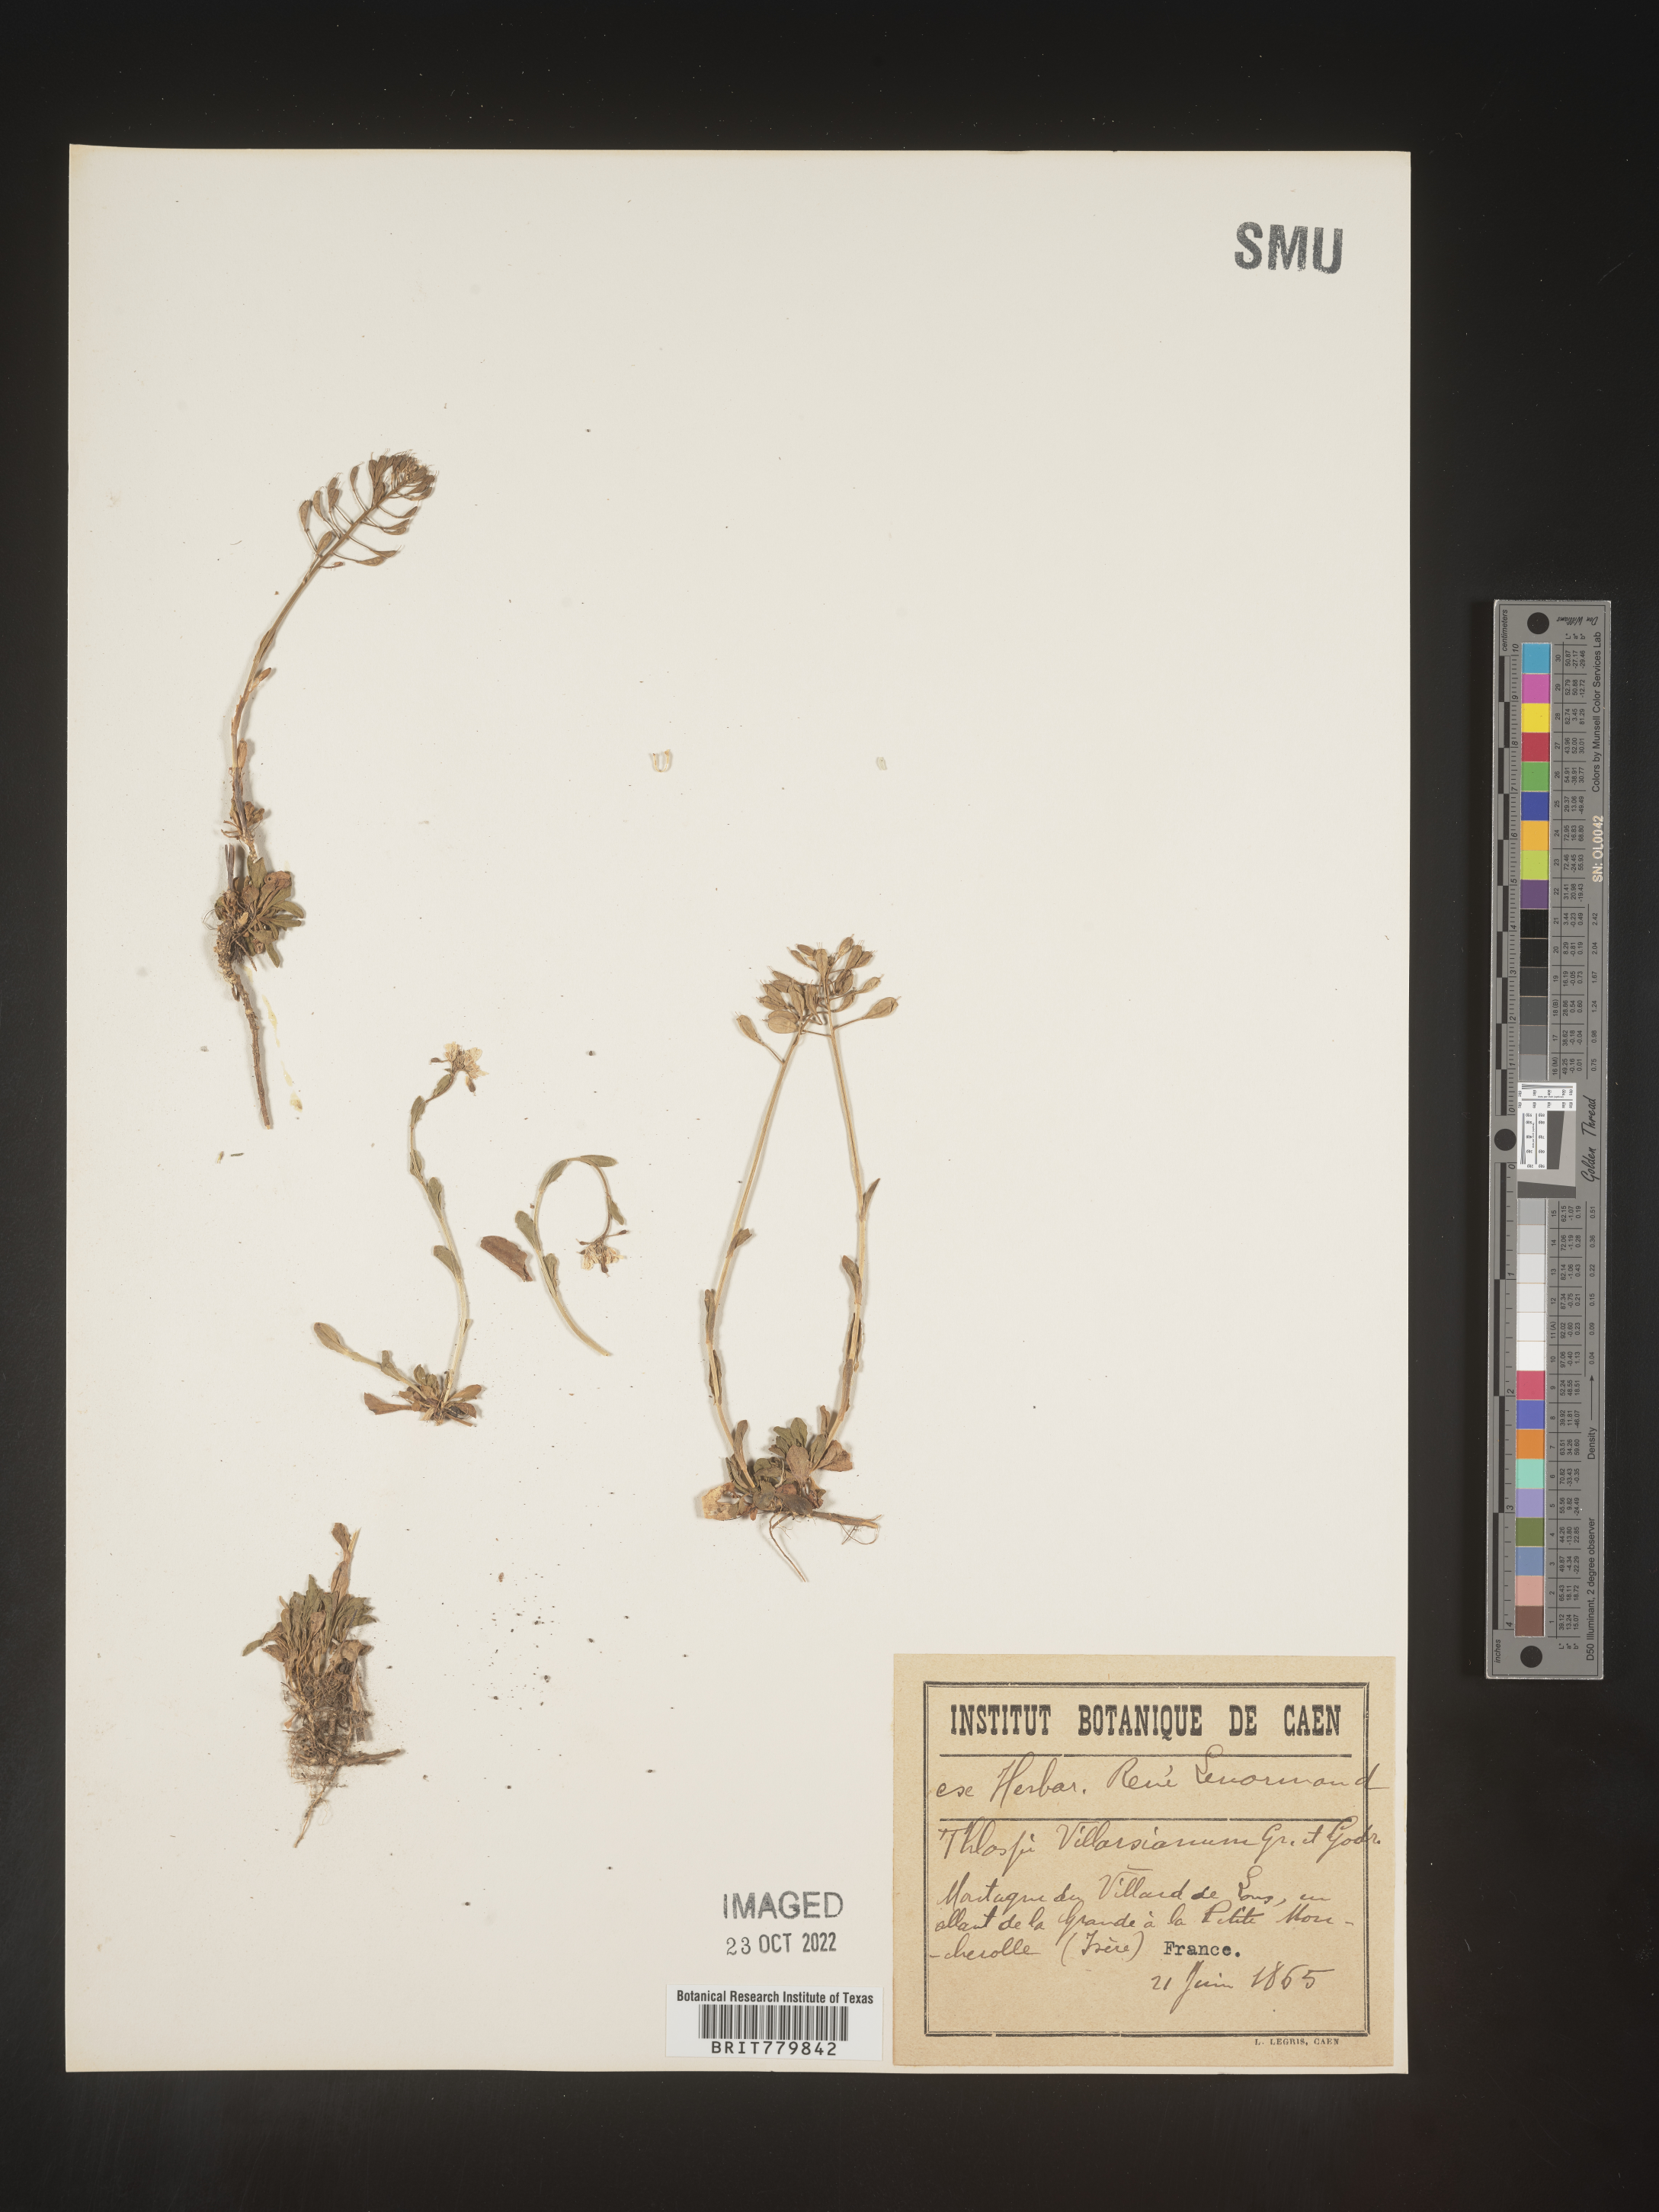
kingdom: Plantae
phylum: Tracheophyta
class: Magnoliopsida
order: Brassicales
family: Brassicaceae
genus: Thlaspi
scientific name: Thlaspi
